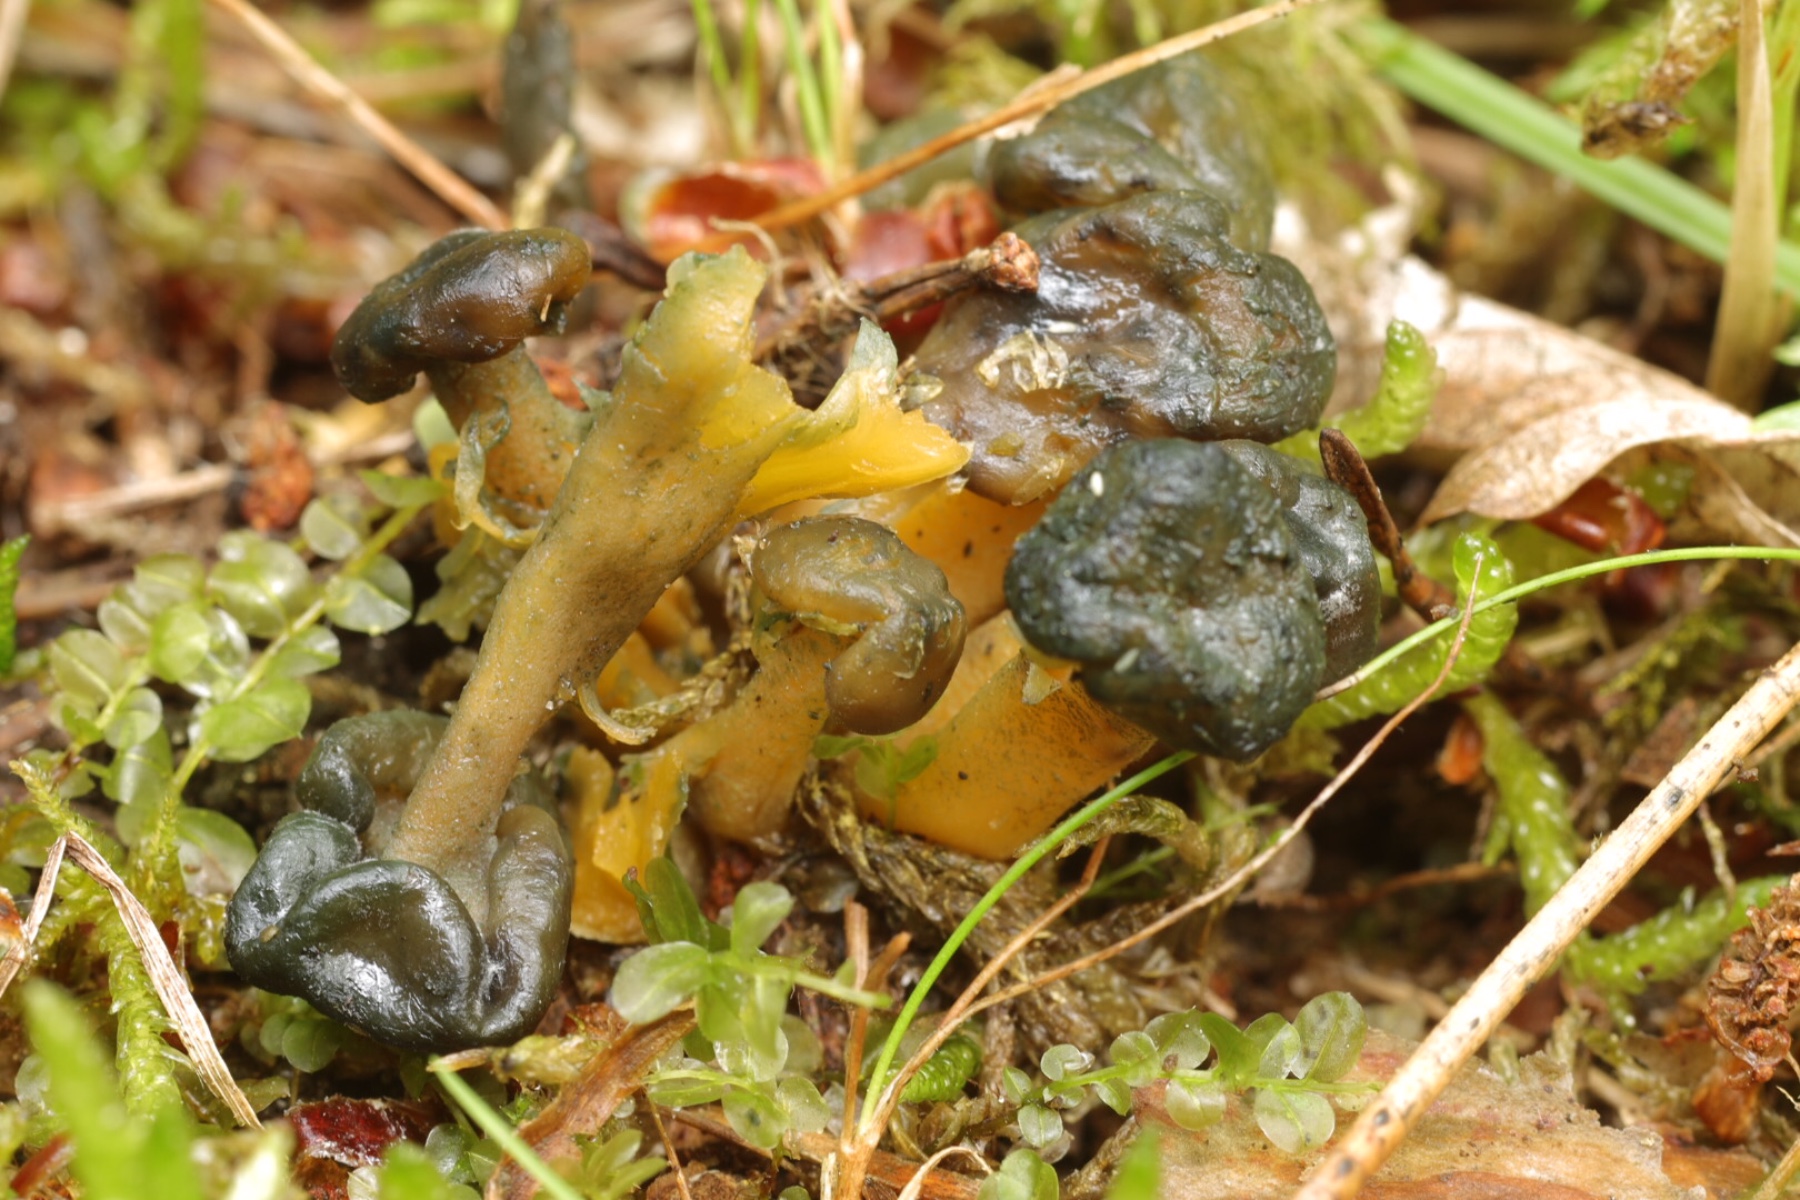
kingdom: Fungi
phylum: Ascomycota
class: Leotiomycetes
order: Leotiales
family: Leotiaceae
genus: Leotia
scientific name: Leotia lubrica
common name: ravsvamp
